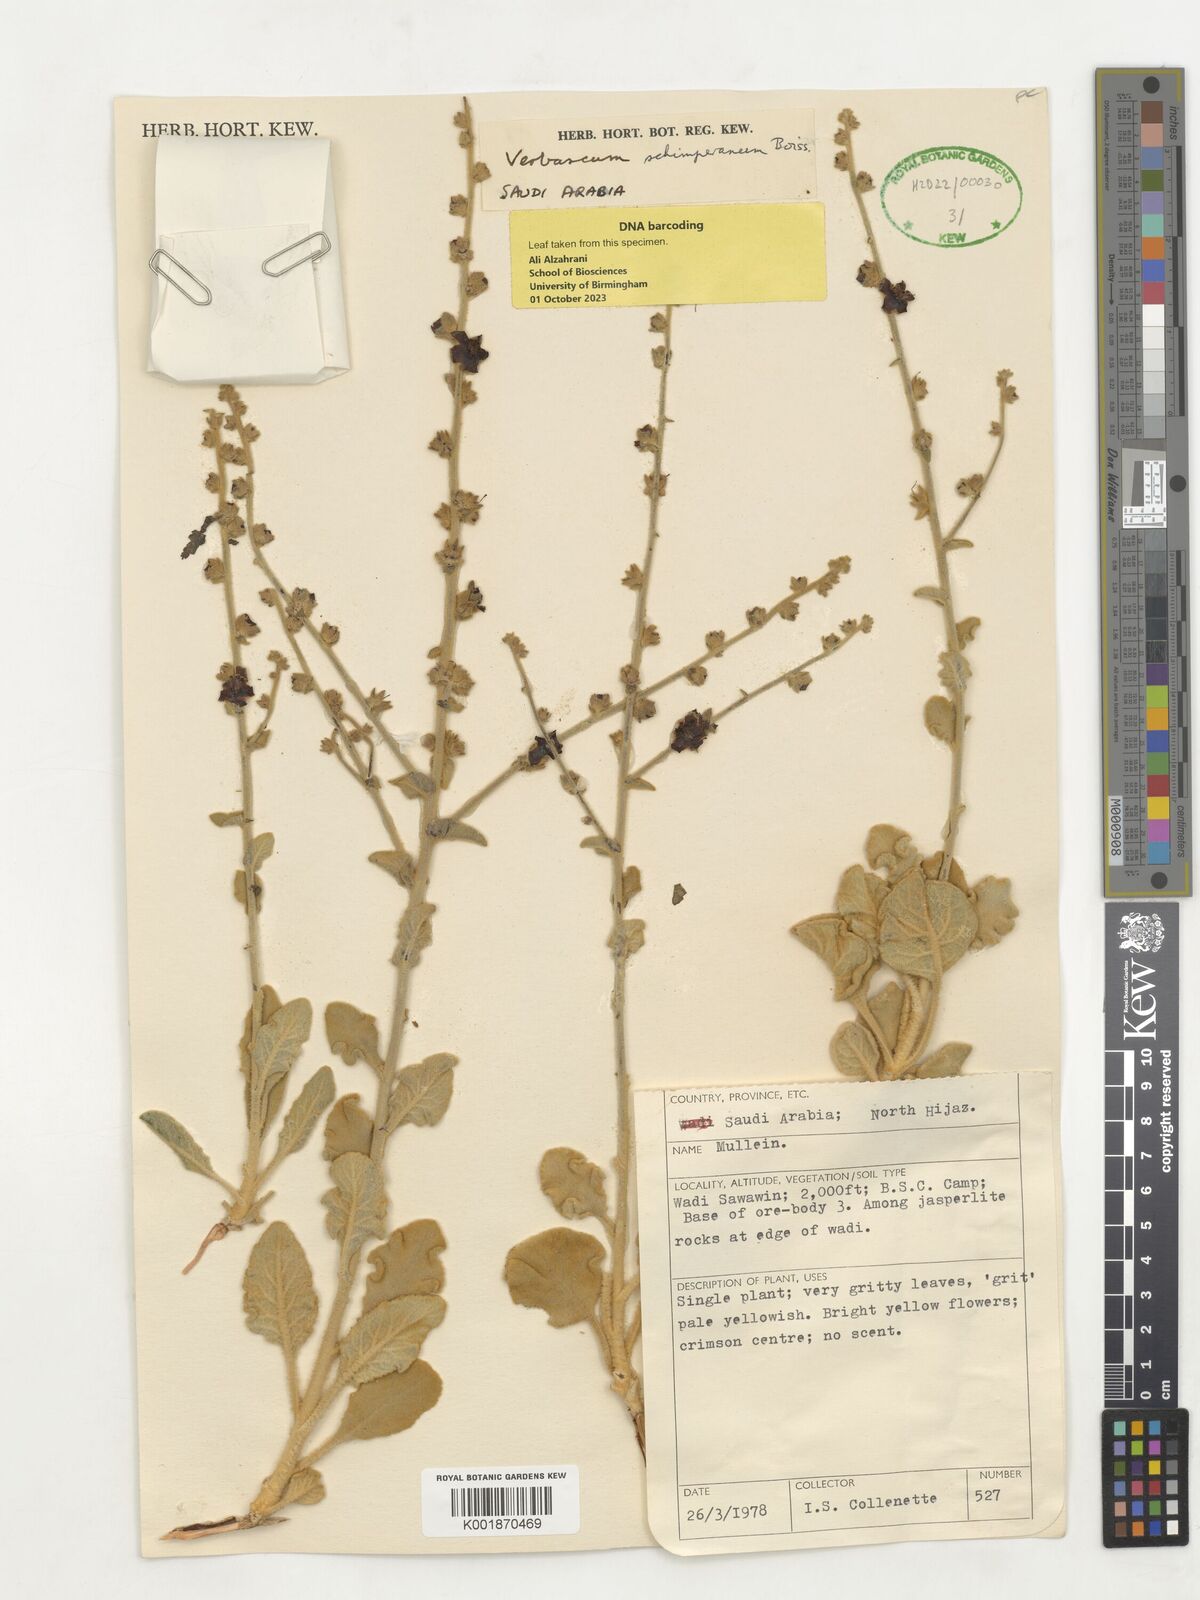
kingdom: Plantae
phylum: Tracheophyta
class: Magnoliopsida
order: Lamiales
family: Scrophulariaceae
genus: Verbascum
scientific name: Verbascum schimperianum
